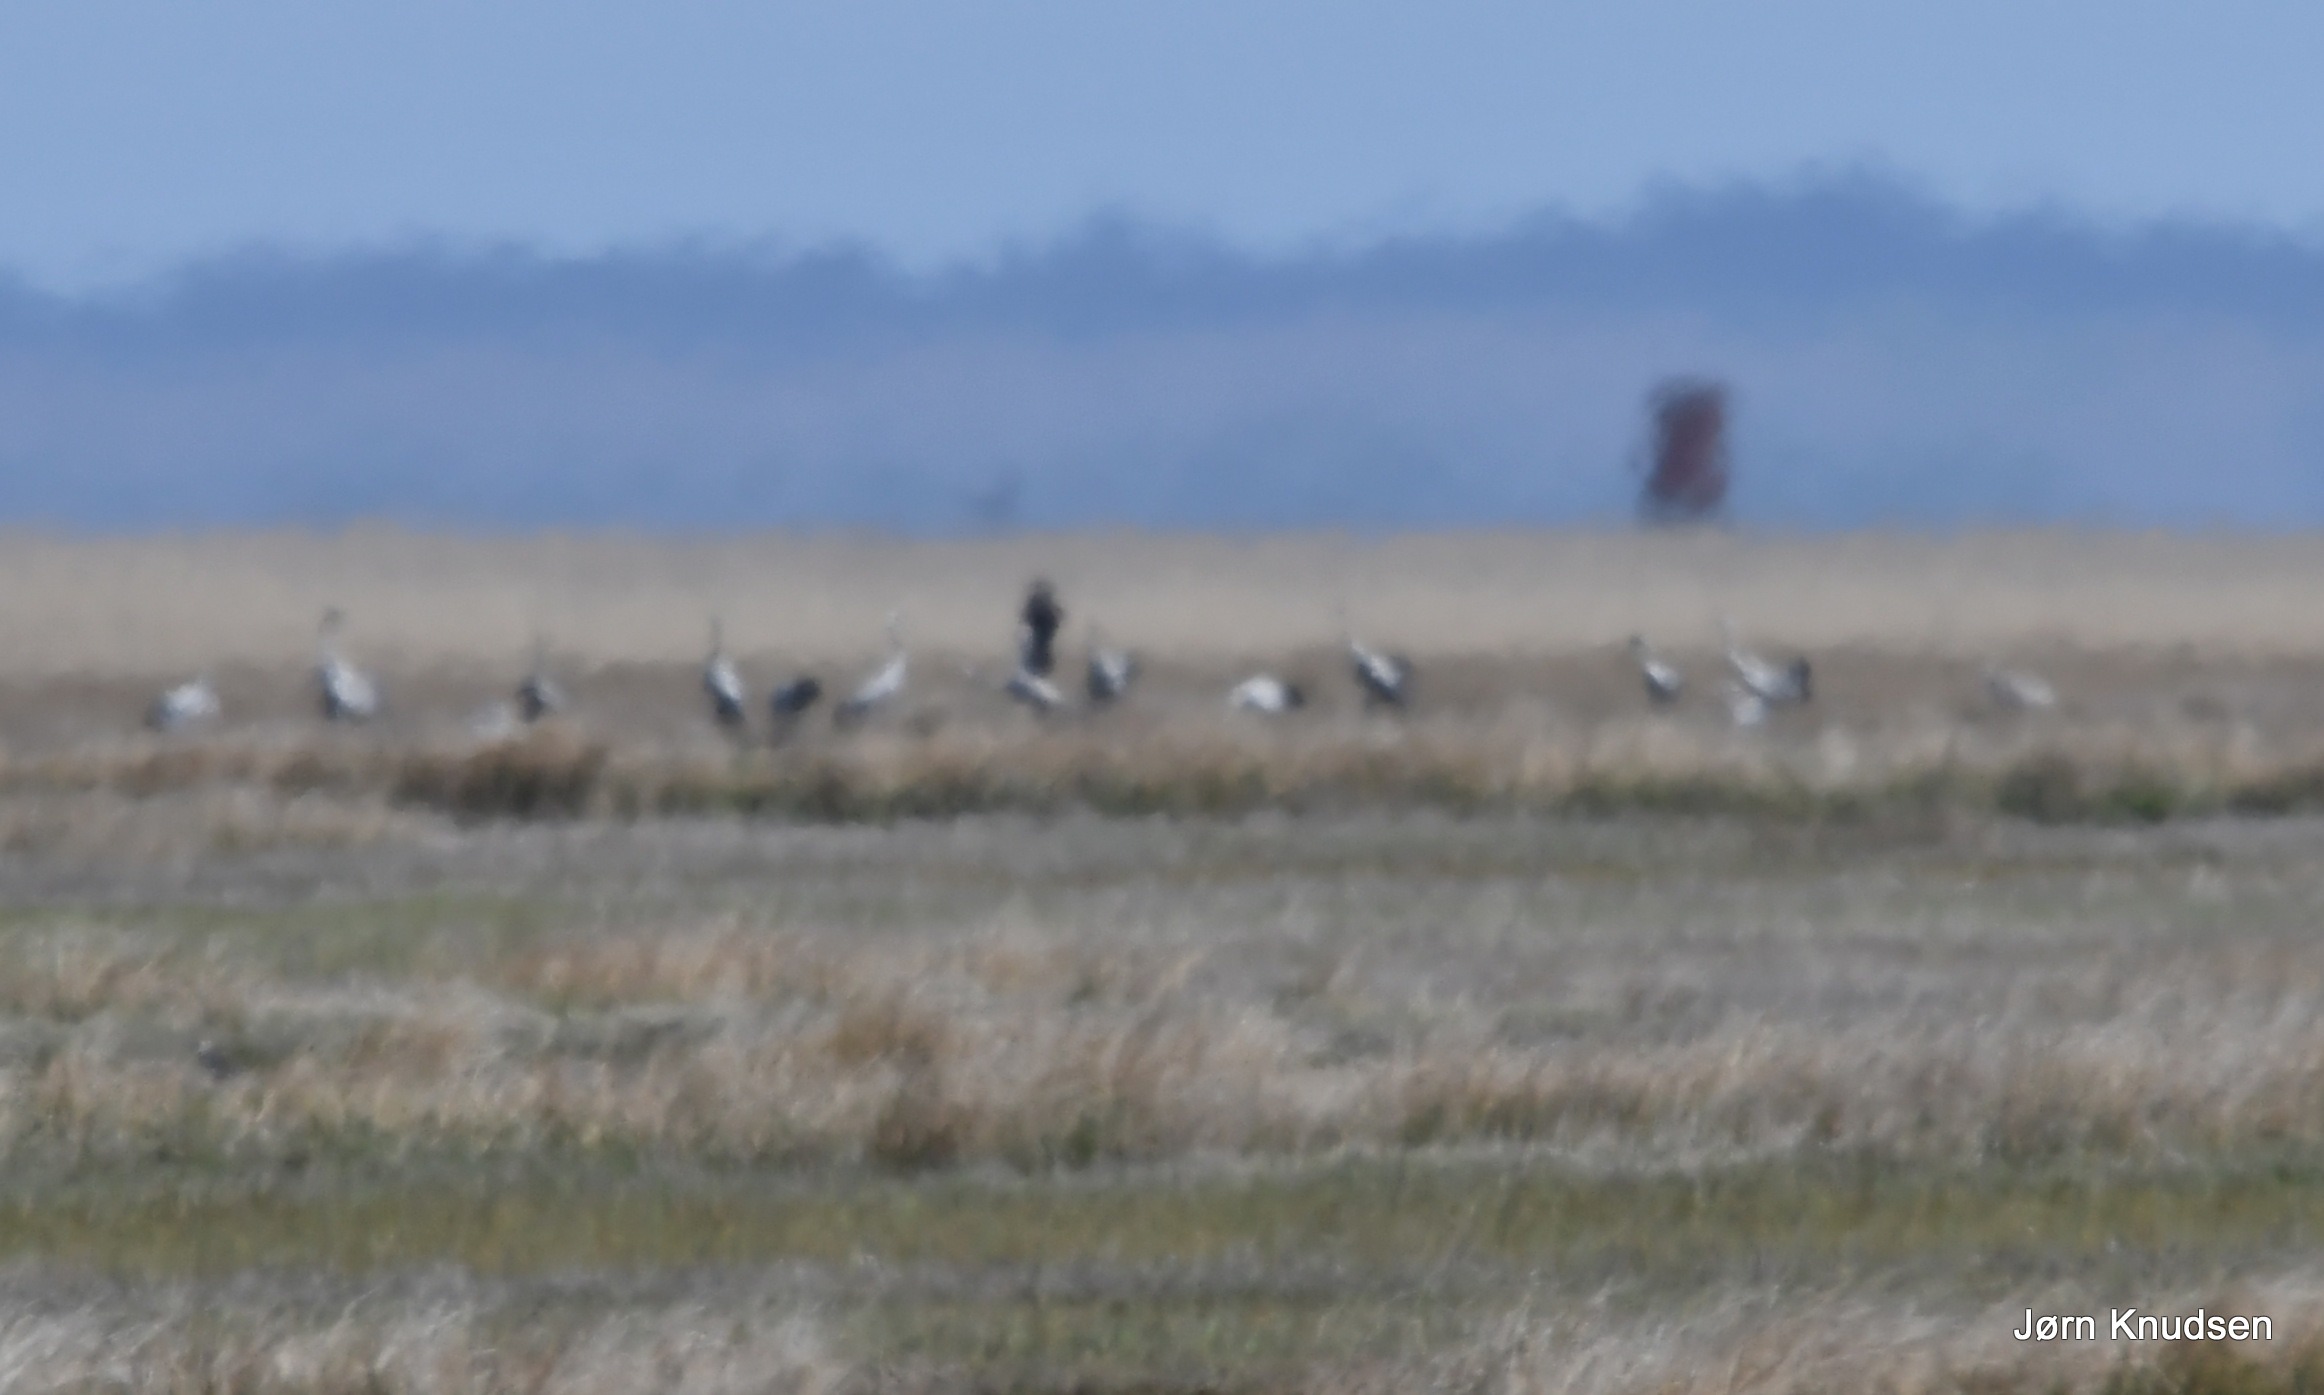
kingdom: Animalia
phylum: Chordata
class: Aves
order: Gruiformes
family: Gruidae
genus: Grus
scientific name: Grus grus
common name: Trane
